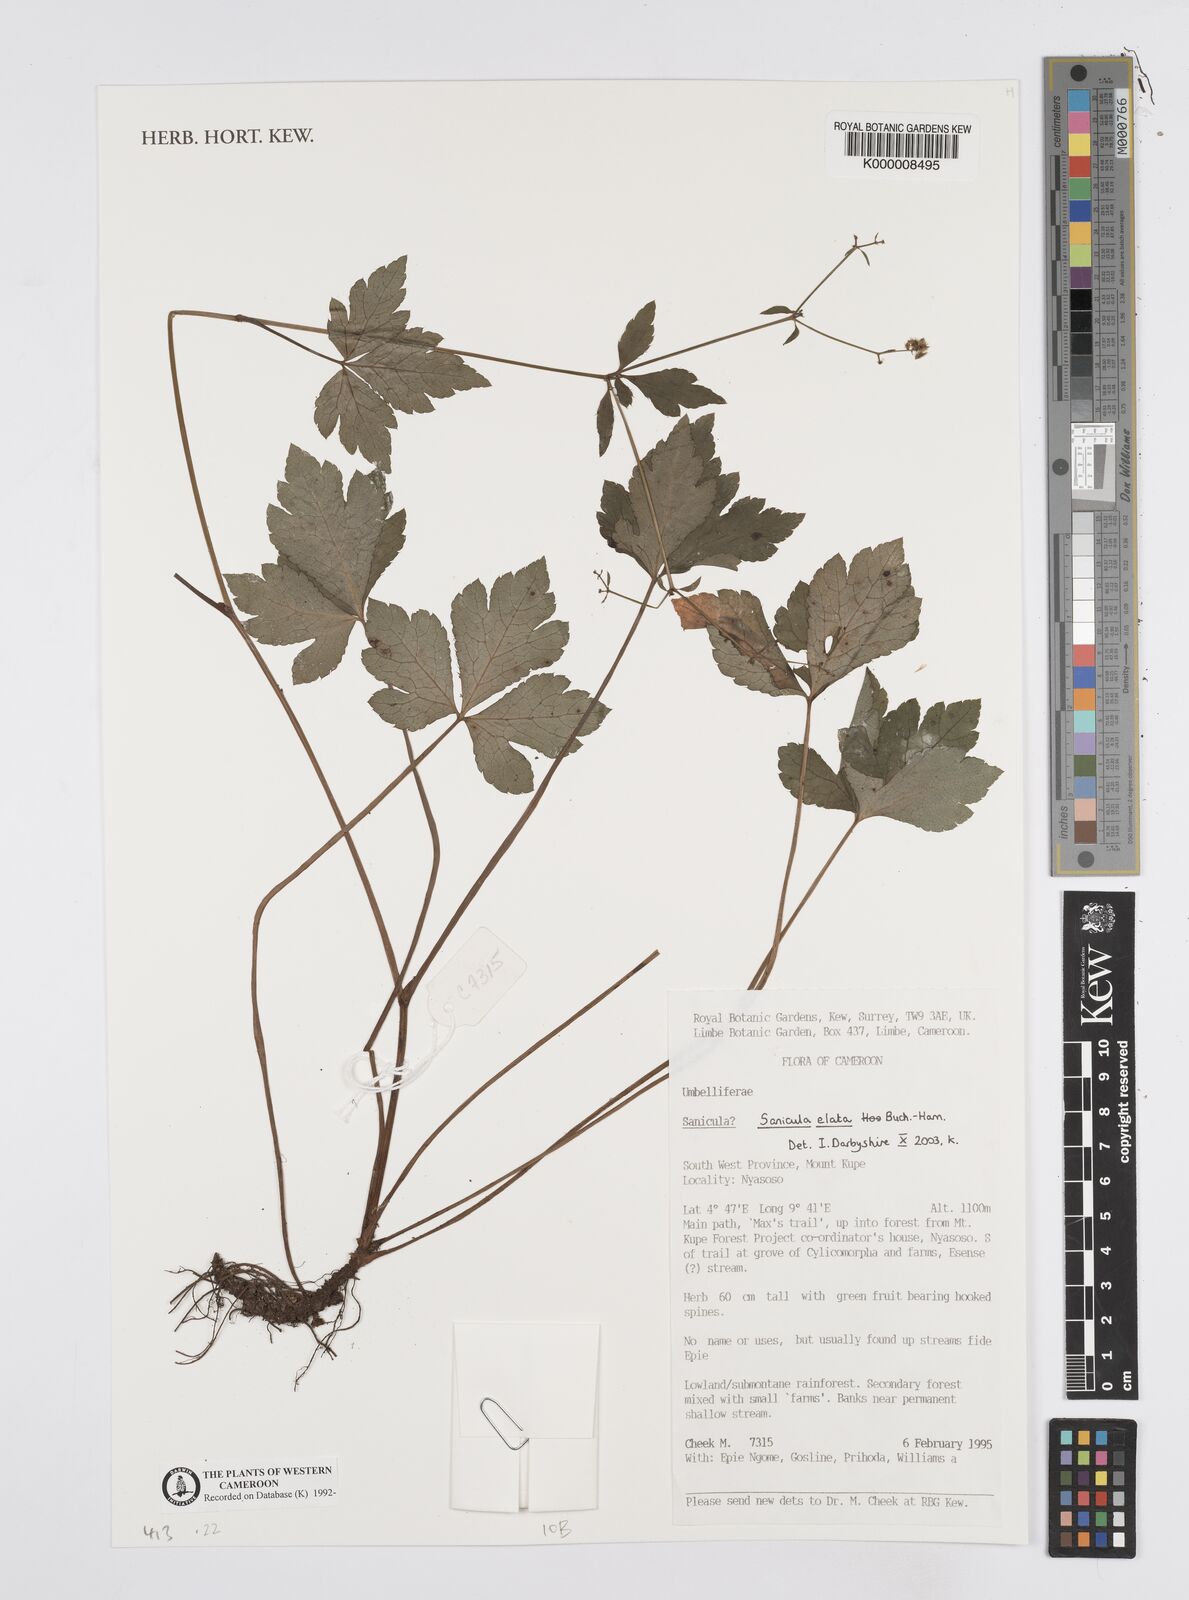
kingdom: Plantae
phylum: Tracheophyta
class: Magnoliopsida
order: Apiales
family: Apiaceae
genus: Sanicula
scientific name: Sanicula
